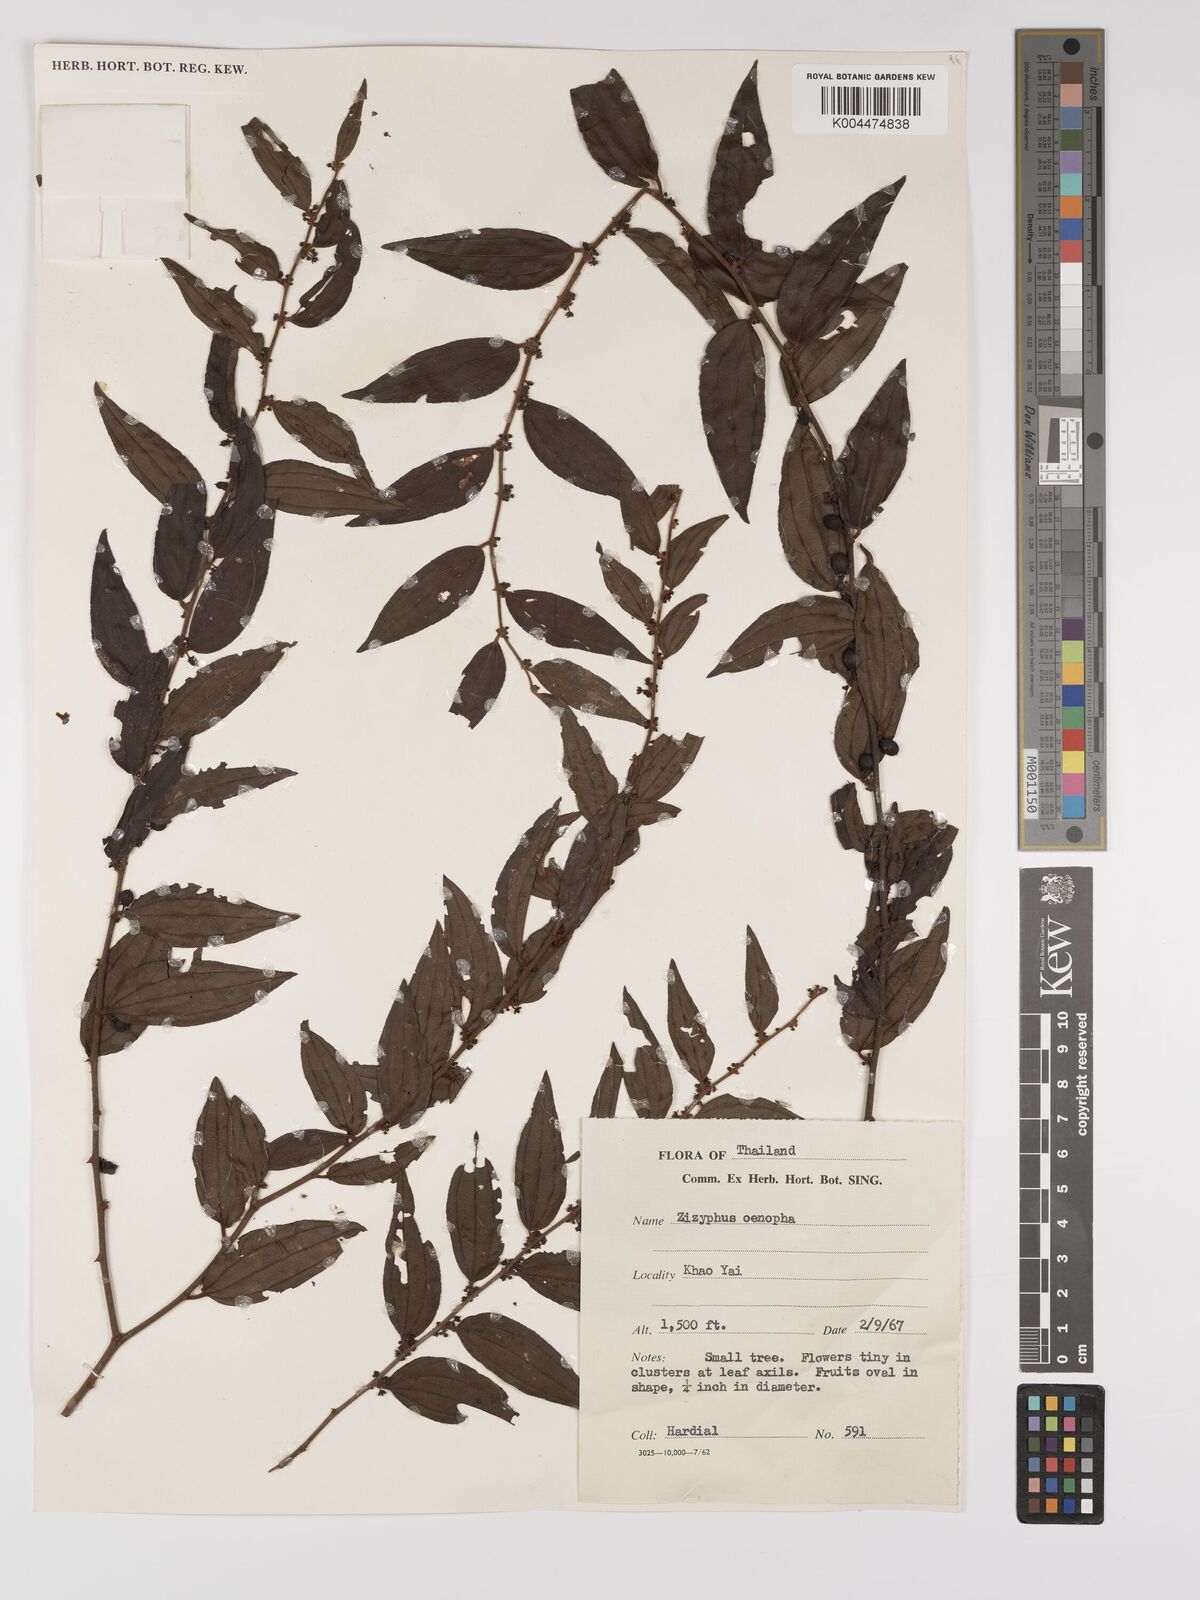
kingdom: Plantae
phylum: Tracheophyta
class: Magnoliopsida
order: Rosales
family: Rhamnaceae
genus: Ziziphus
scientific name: Ziziphus oenopolia
